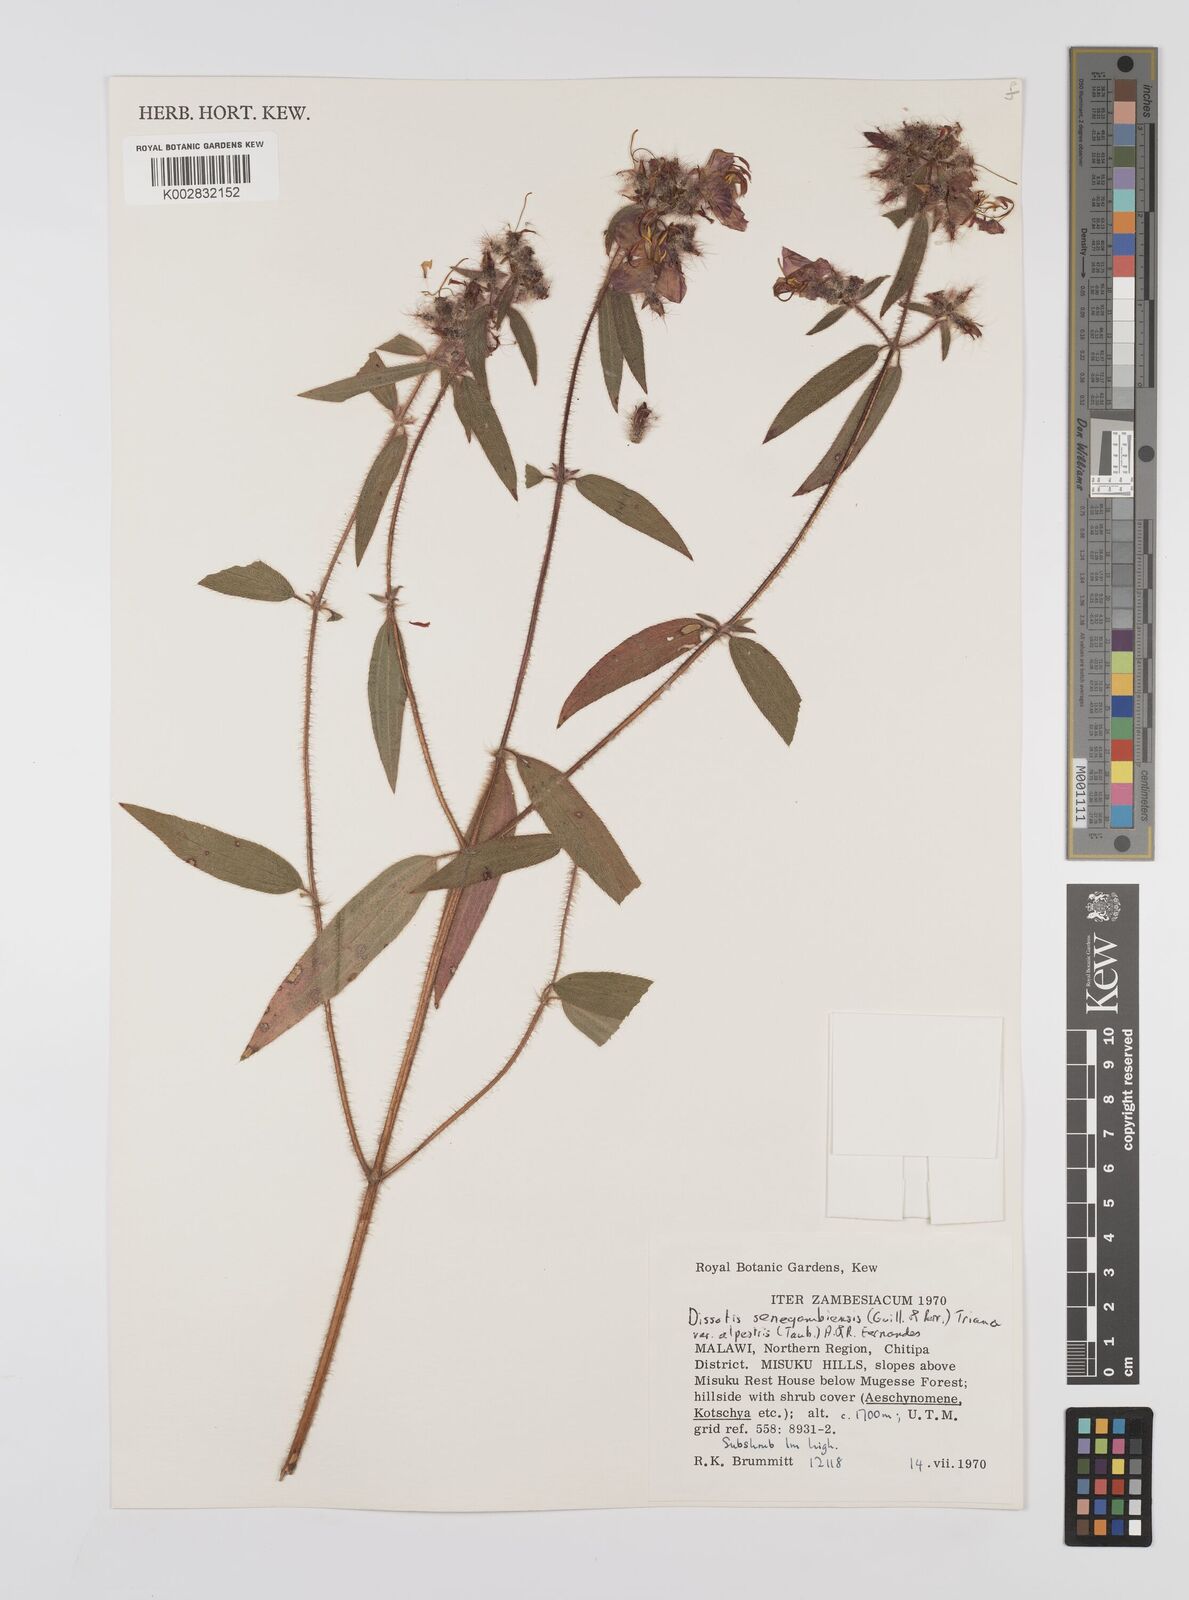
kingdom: Plantae
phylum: Tracheophyta
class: Magnoliopsida
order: Myrtales
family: Melastomataceae
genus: Nerophila
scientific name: Nerophila senegambiensis
